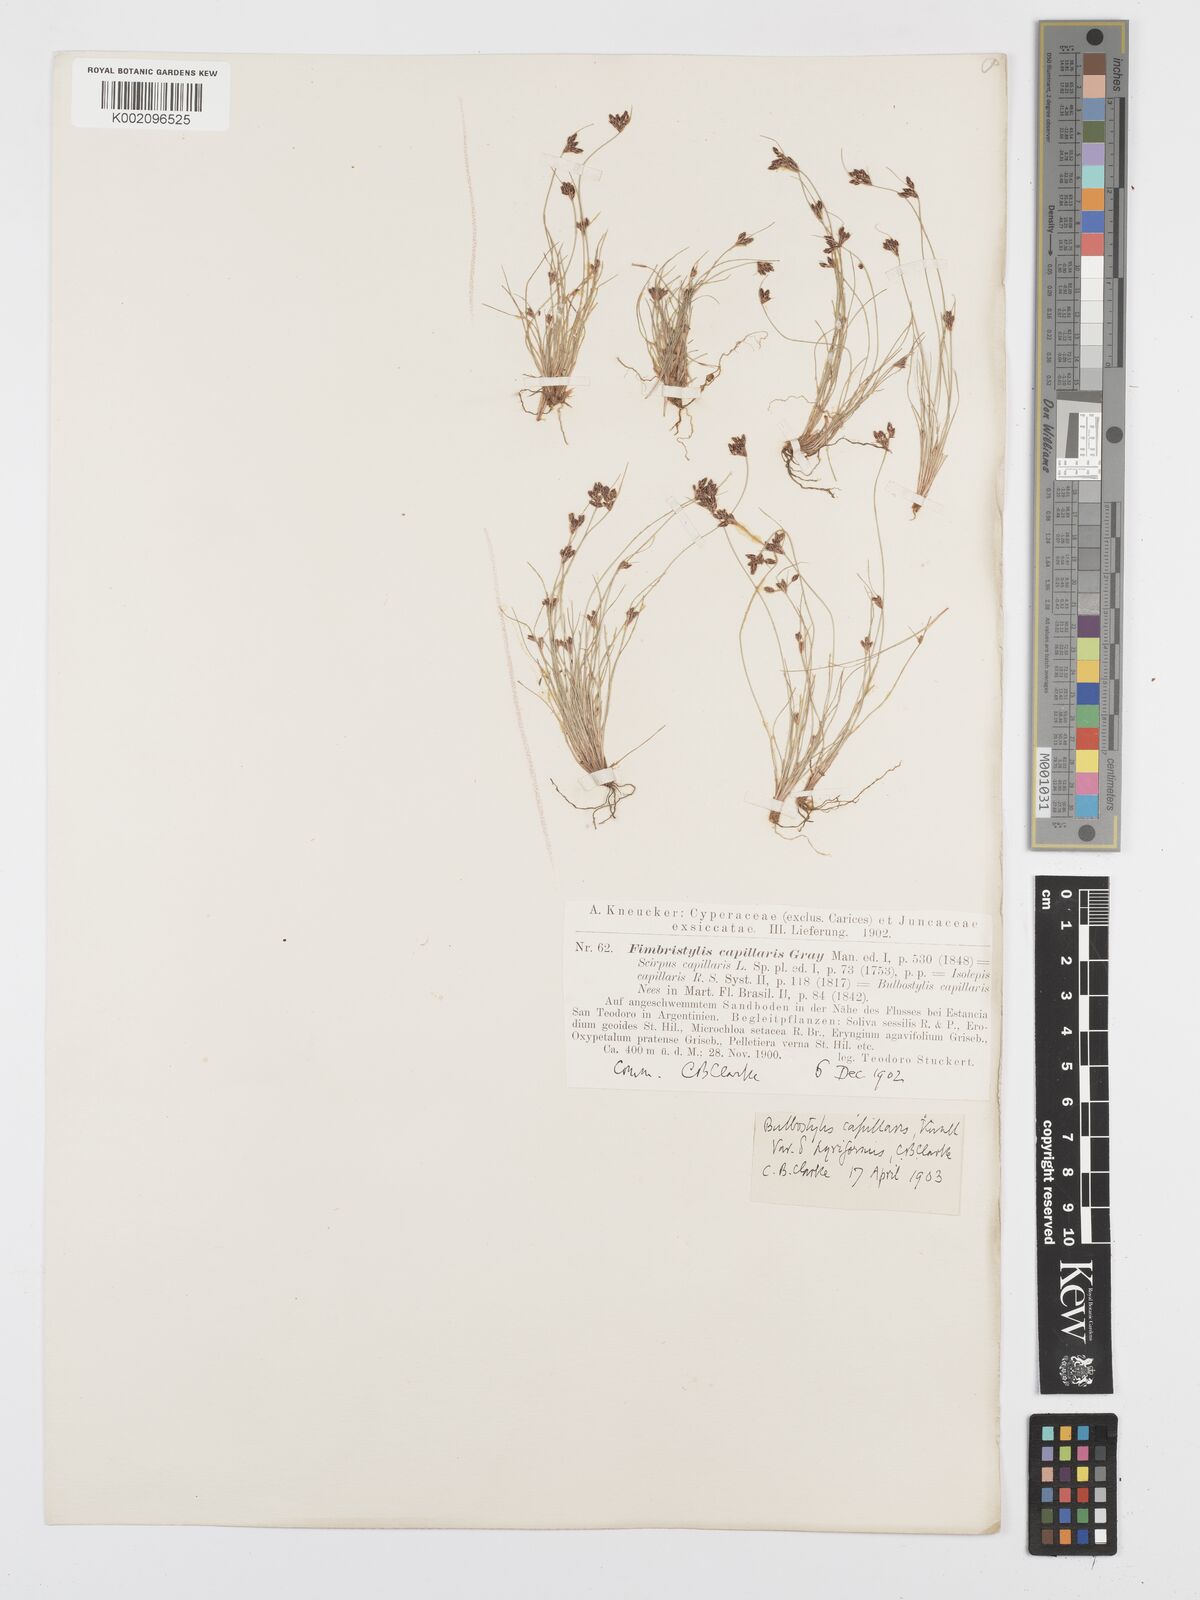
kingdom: Plantae
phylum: Tracheophyta
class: Liliopsida
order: Poales
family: Cyperaceae
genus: Bulbostylis
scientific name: Bulbostylis capillaris
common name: Densetuft hairsedge
